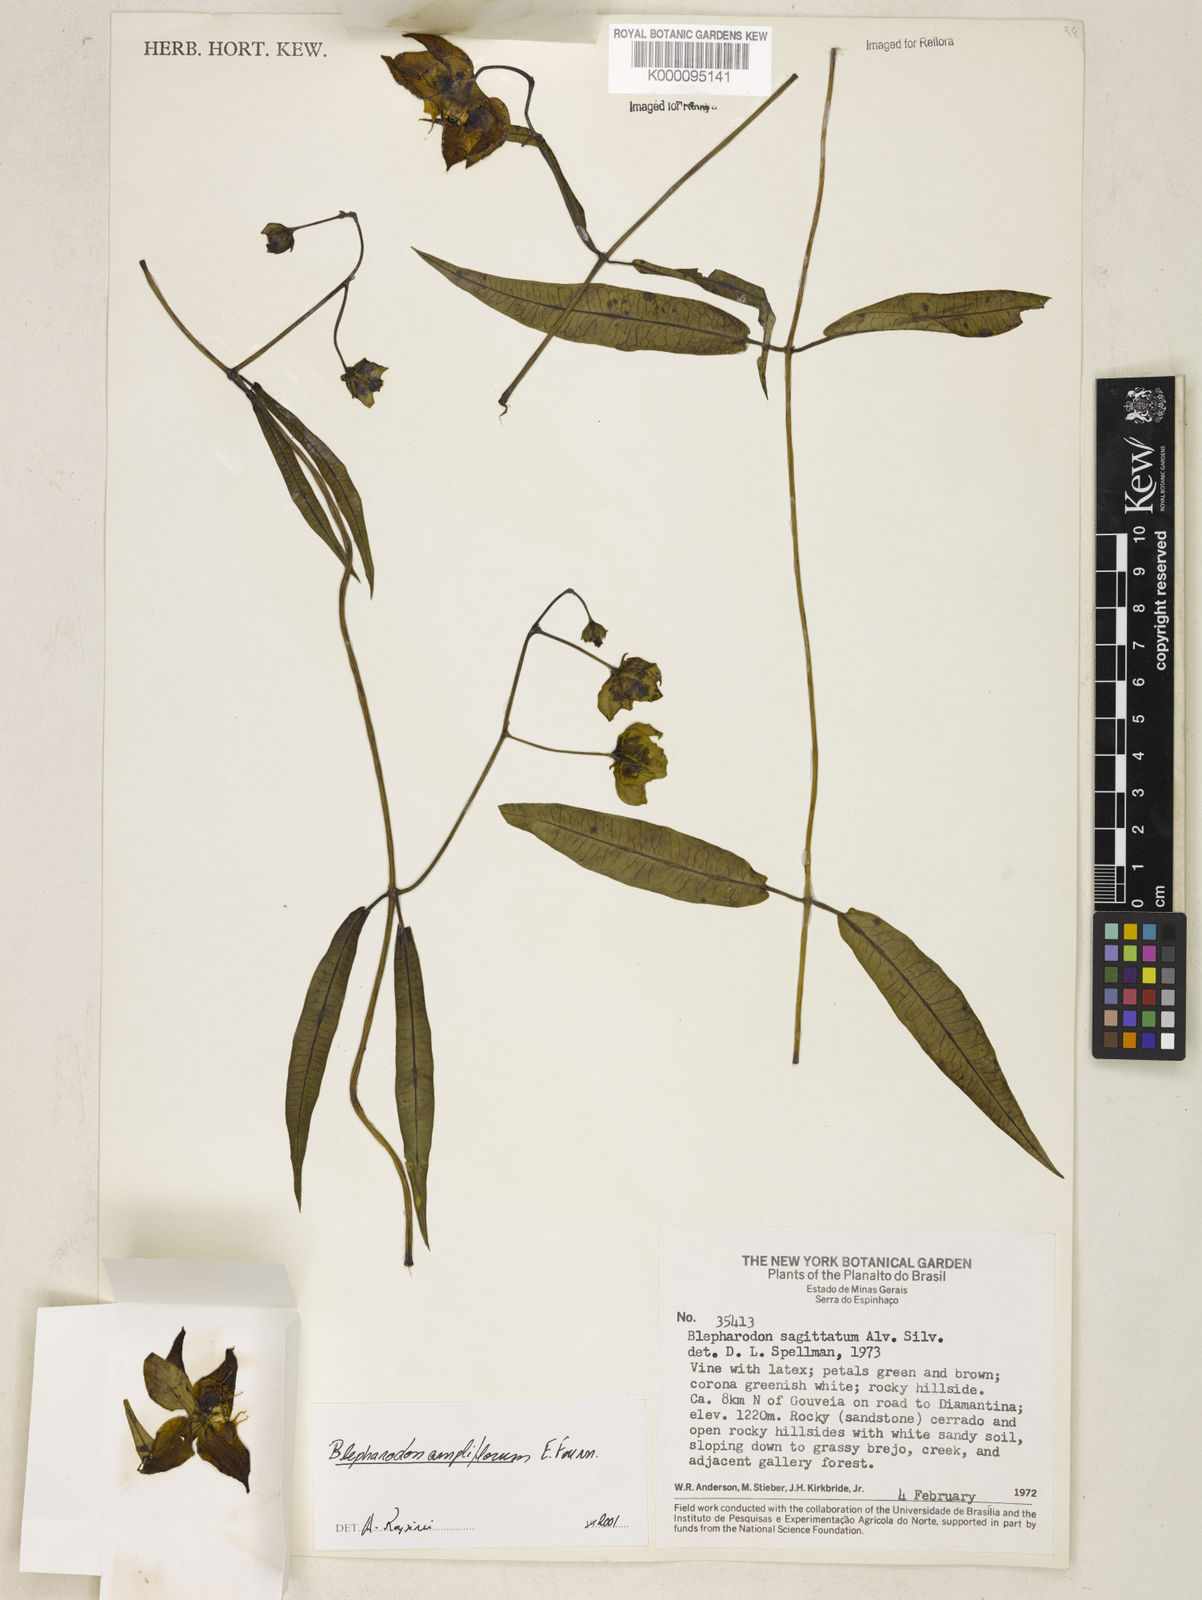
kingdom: Plantae
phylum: Tracheophyta
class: Magnoliopsida
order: Gentianales
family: Apocynaceae
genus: Blepharodon
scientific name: Blepharodon ampliflorum
